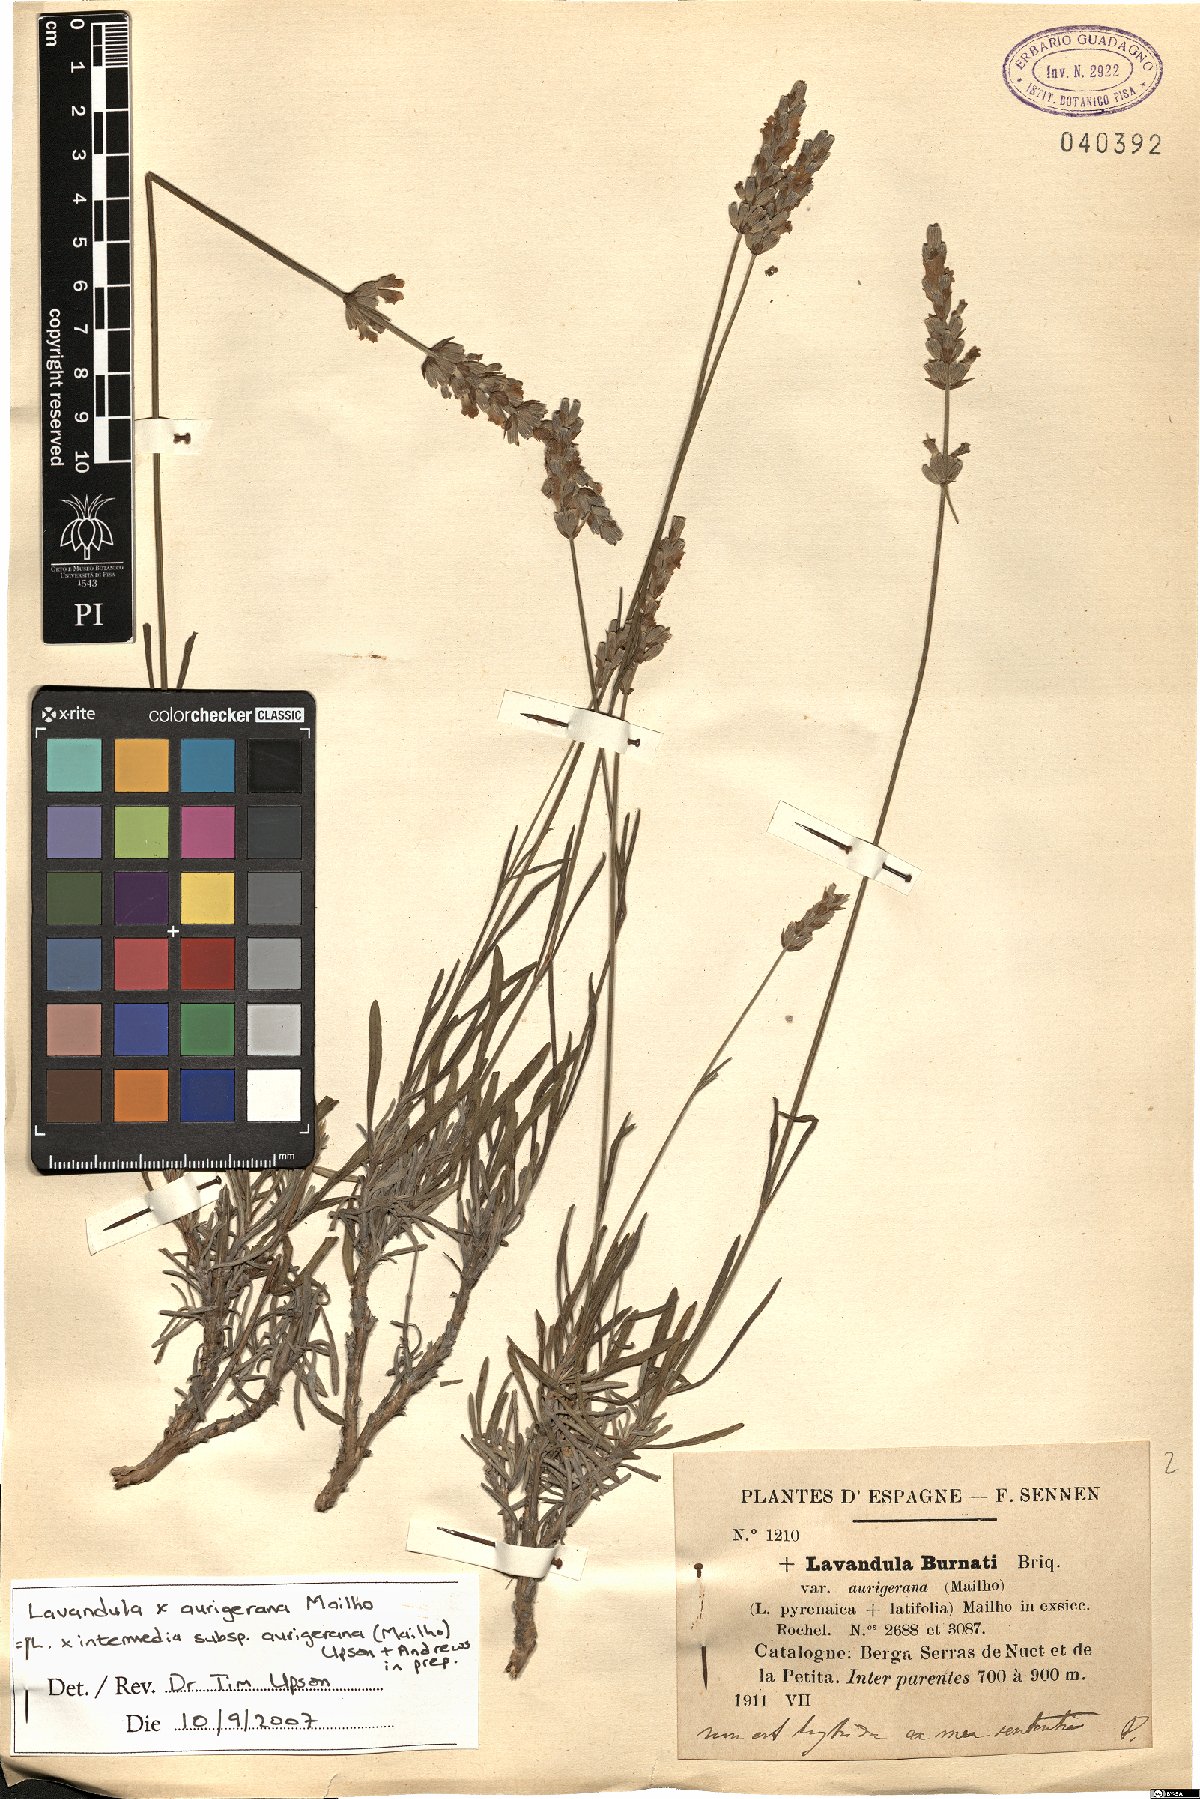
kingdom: Plantae
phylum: Tracheophyta
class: Magnoliopsida
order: Lamiales
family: Lamiaceae
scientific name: Lamiaceae
